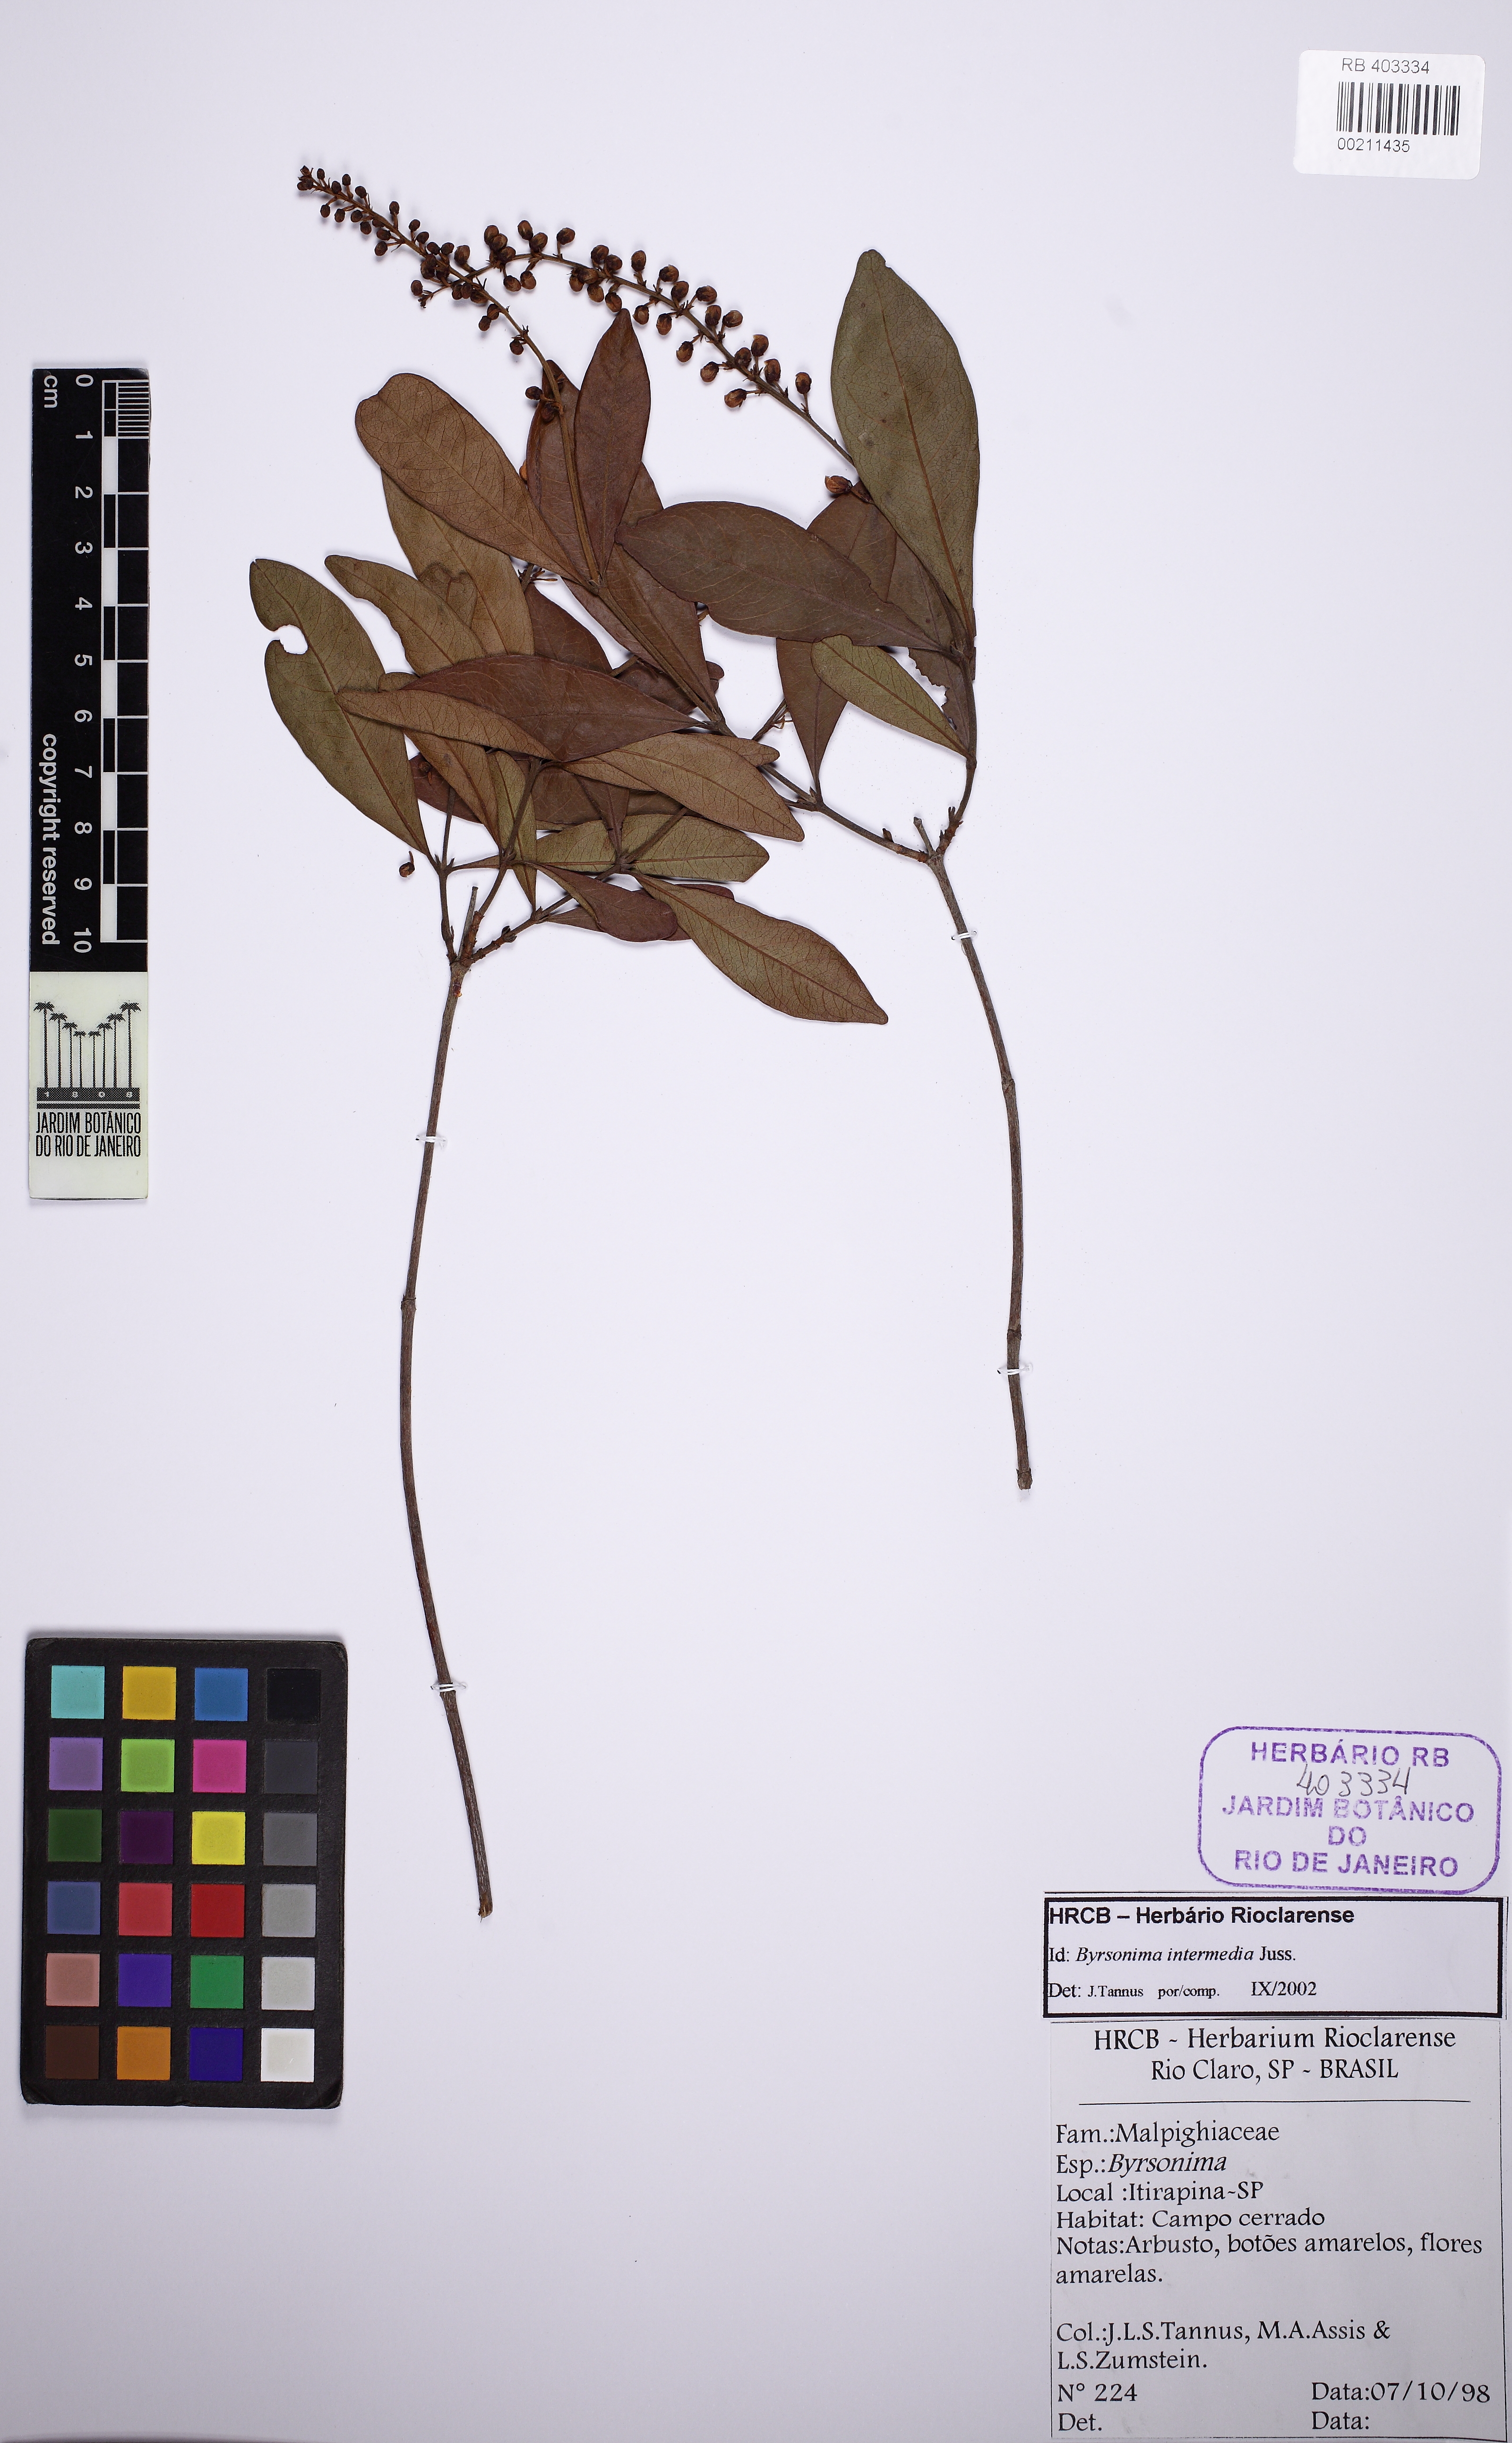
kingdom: Plantae
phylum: Tracheophyta
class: Magnoliopsida
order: Malpighiales
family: Malpighiaceae
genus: Byrsonima
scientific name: Byrsonima intermedia
